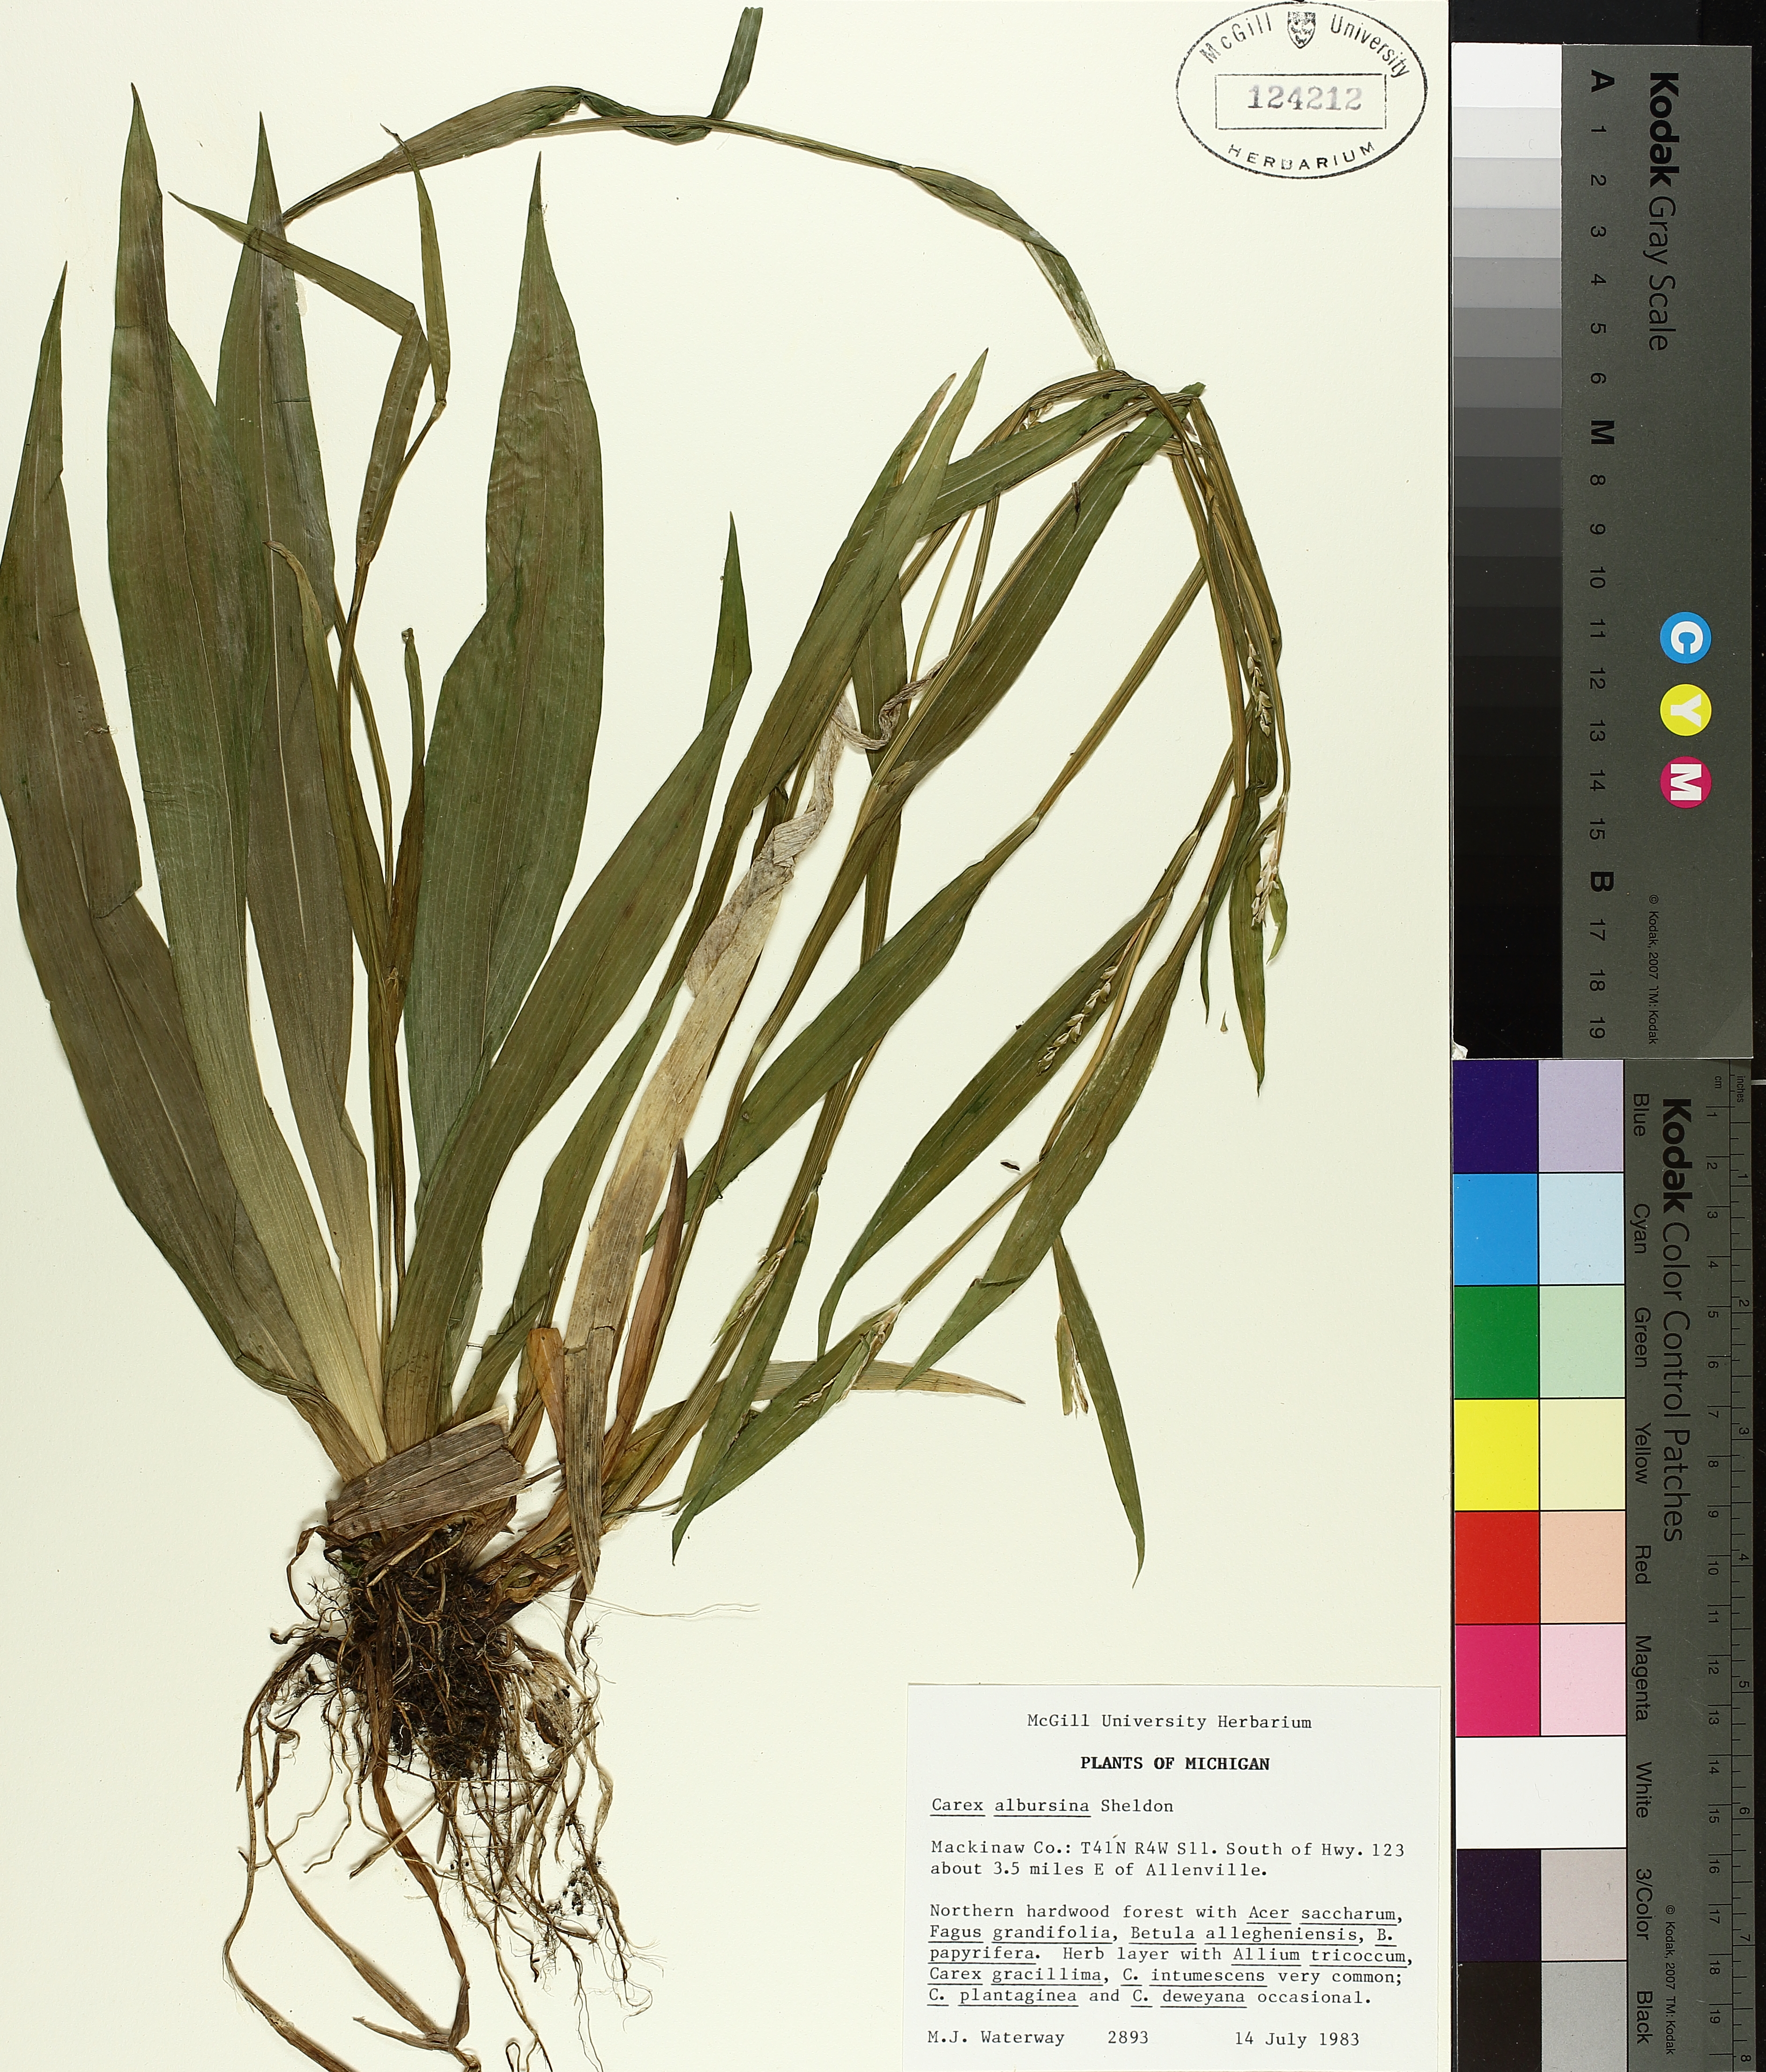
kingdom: Plantae
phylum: Tracheophyta
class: Liliopsida
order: Poales
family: Cyperaceae
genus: Carex
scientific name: Carex albursina
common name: Blunt-scale wood sedge
